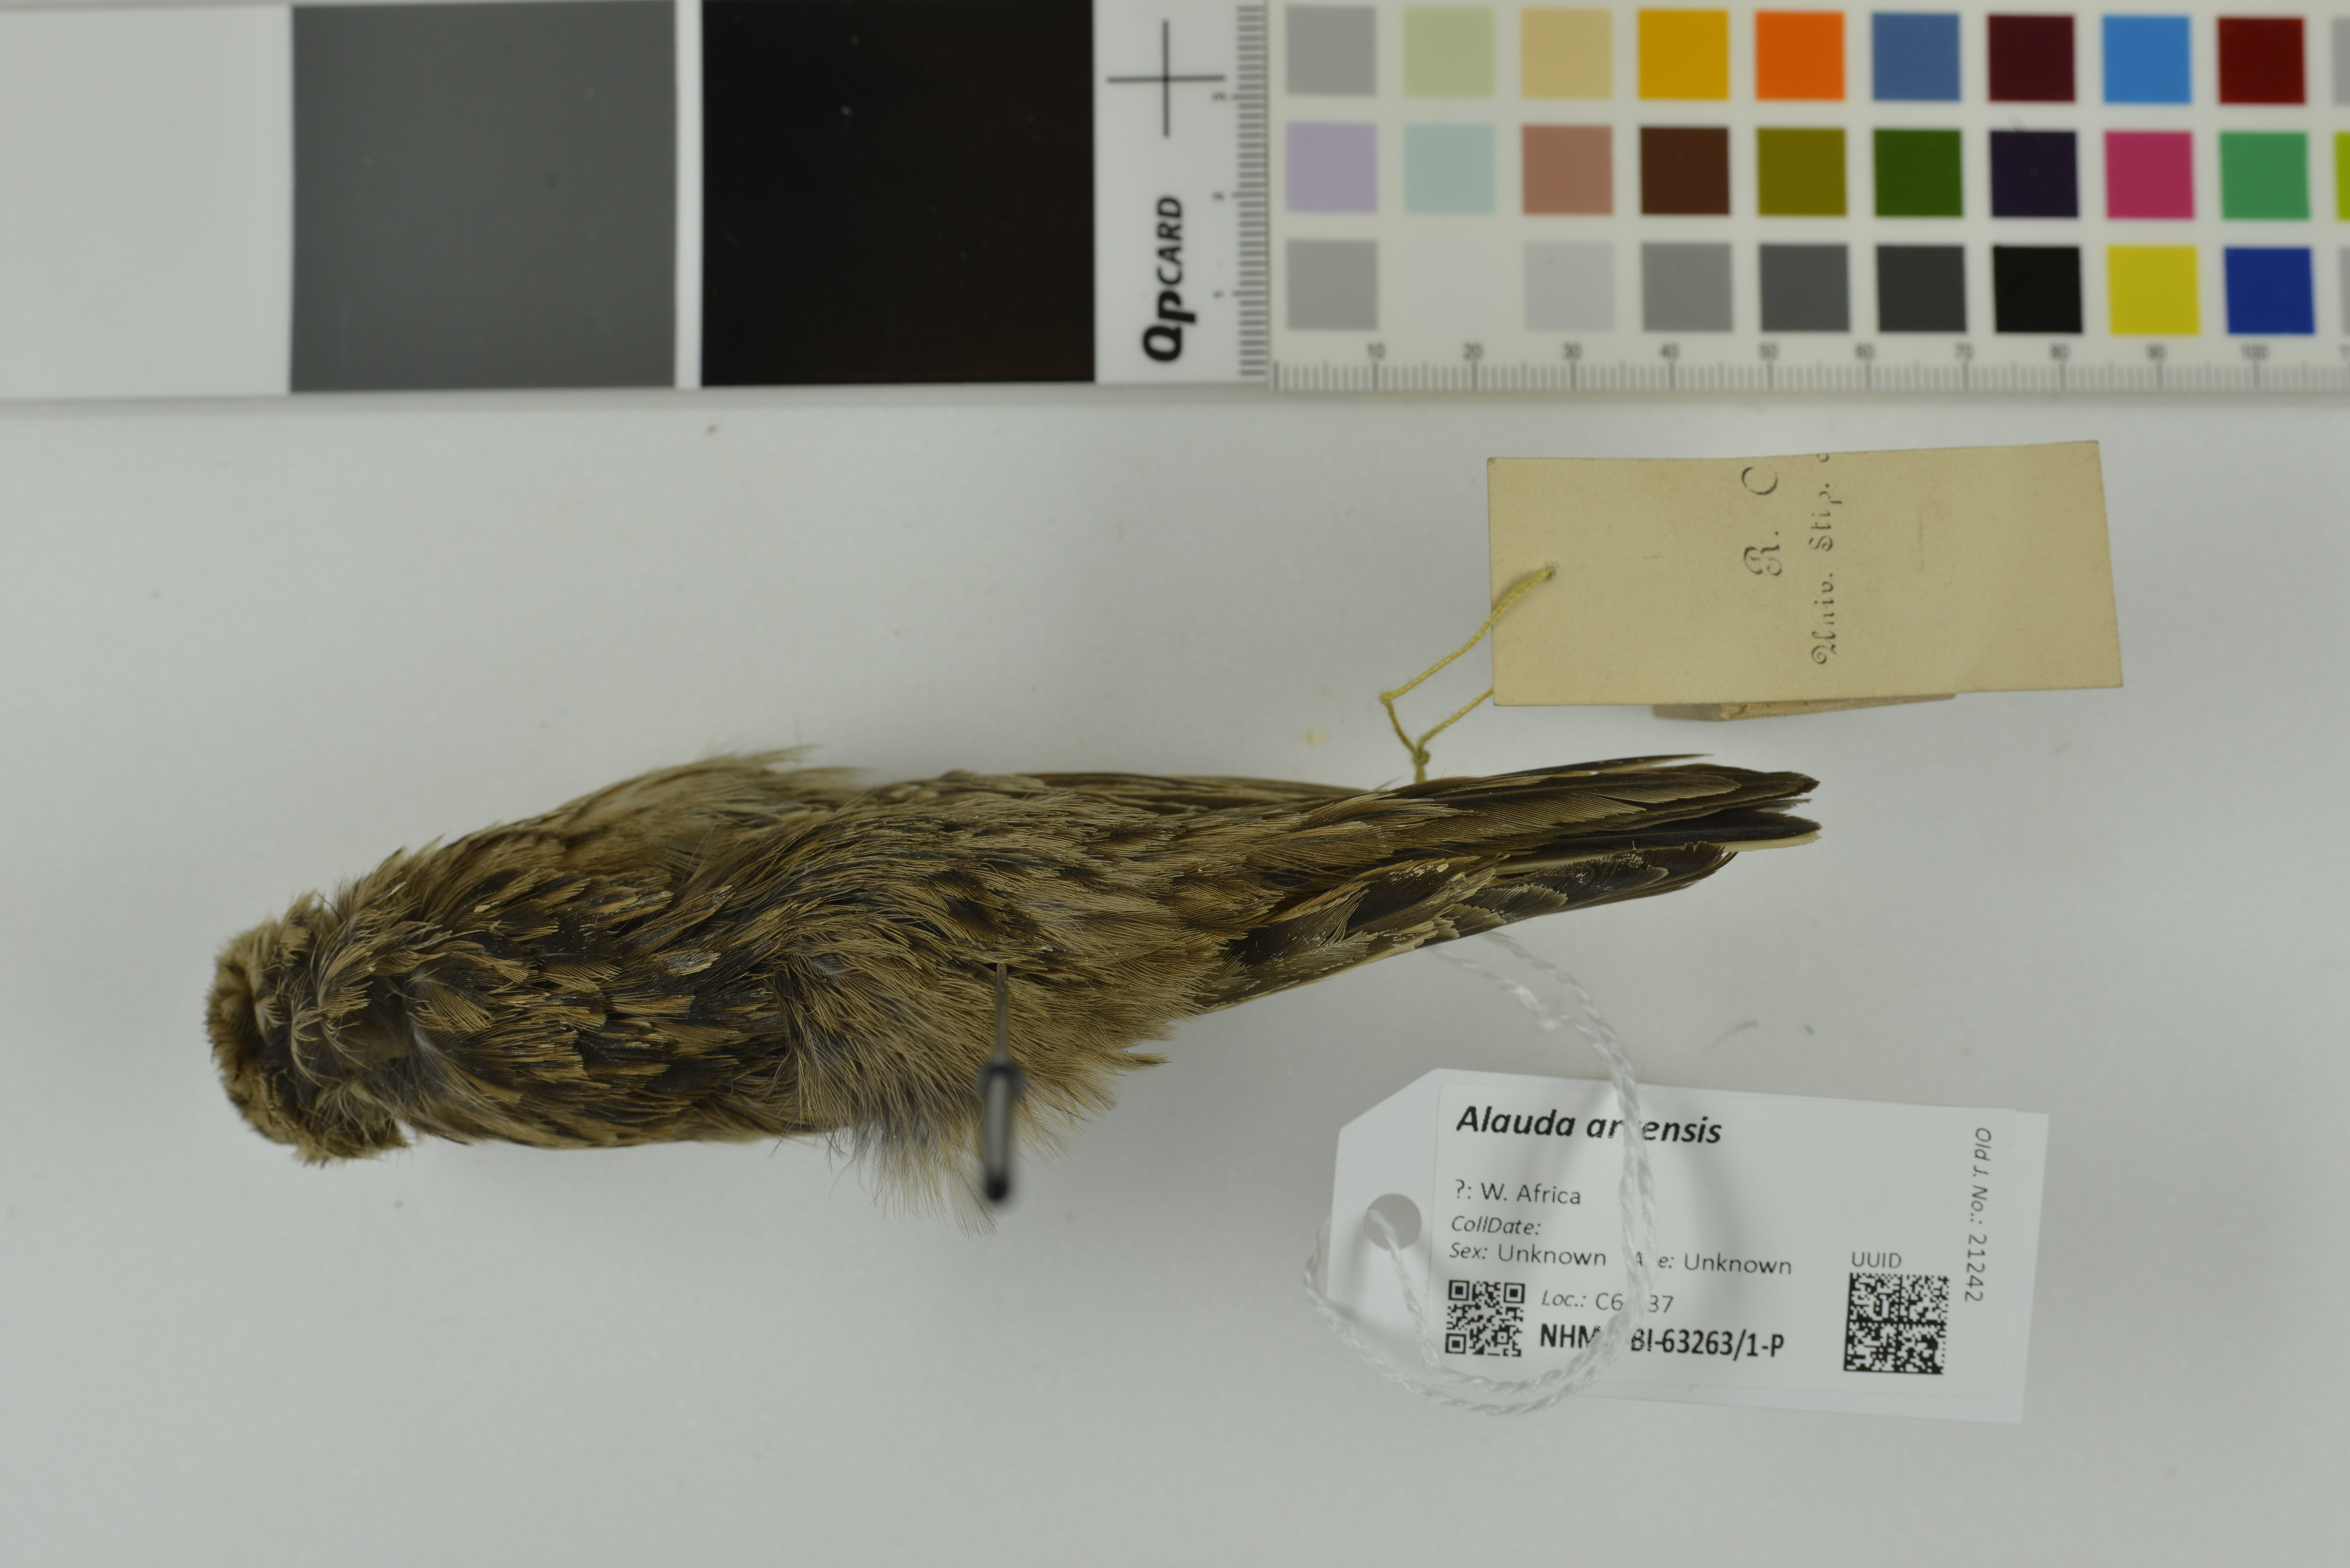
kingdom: Animalia
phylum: Chordata
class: Aves
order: Passeriformes
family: Alaudidae
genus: Alauda
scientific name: Alauda arvensis
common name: Eurasian skylark
